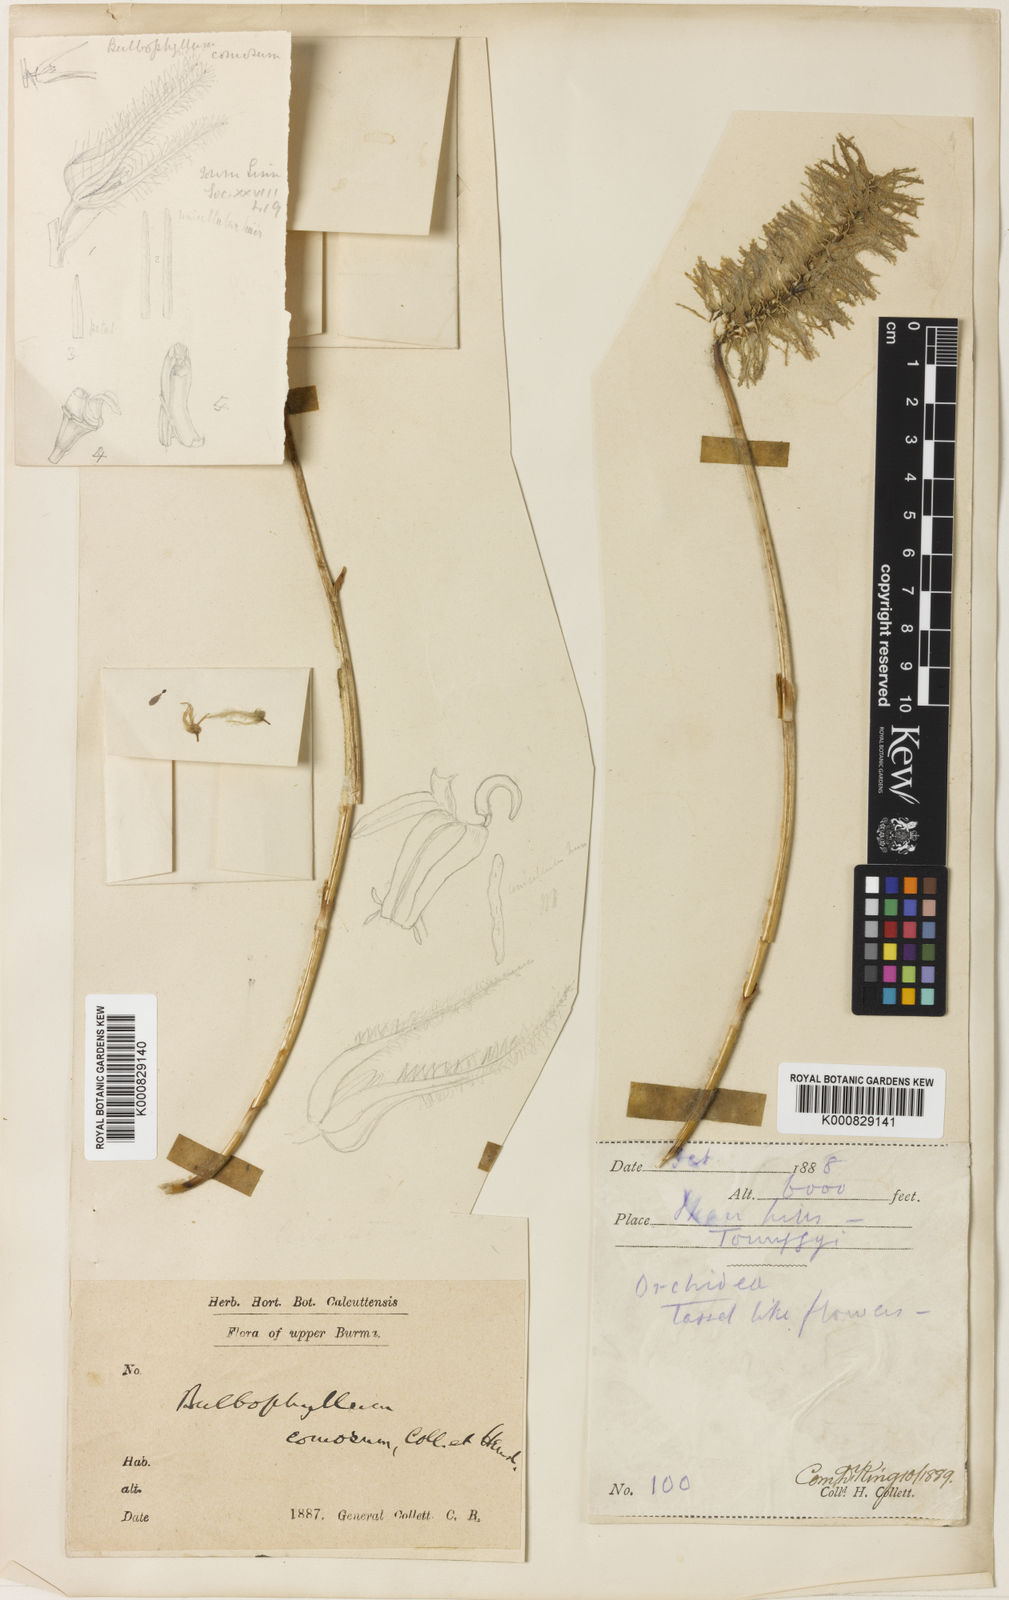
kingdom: Plantae
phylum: Tracheophyta
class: Liliopsida
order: Asparagales
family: Orchidaceae
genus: Bulbophyllum
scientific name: Bulbophyllum comosum
